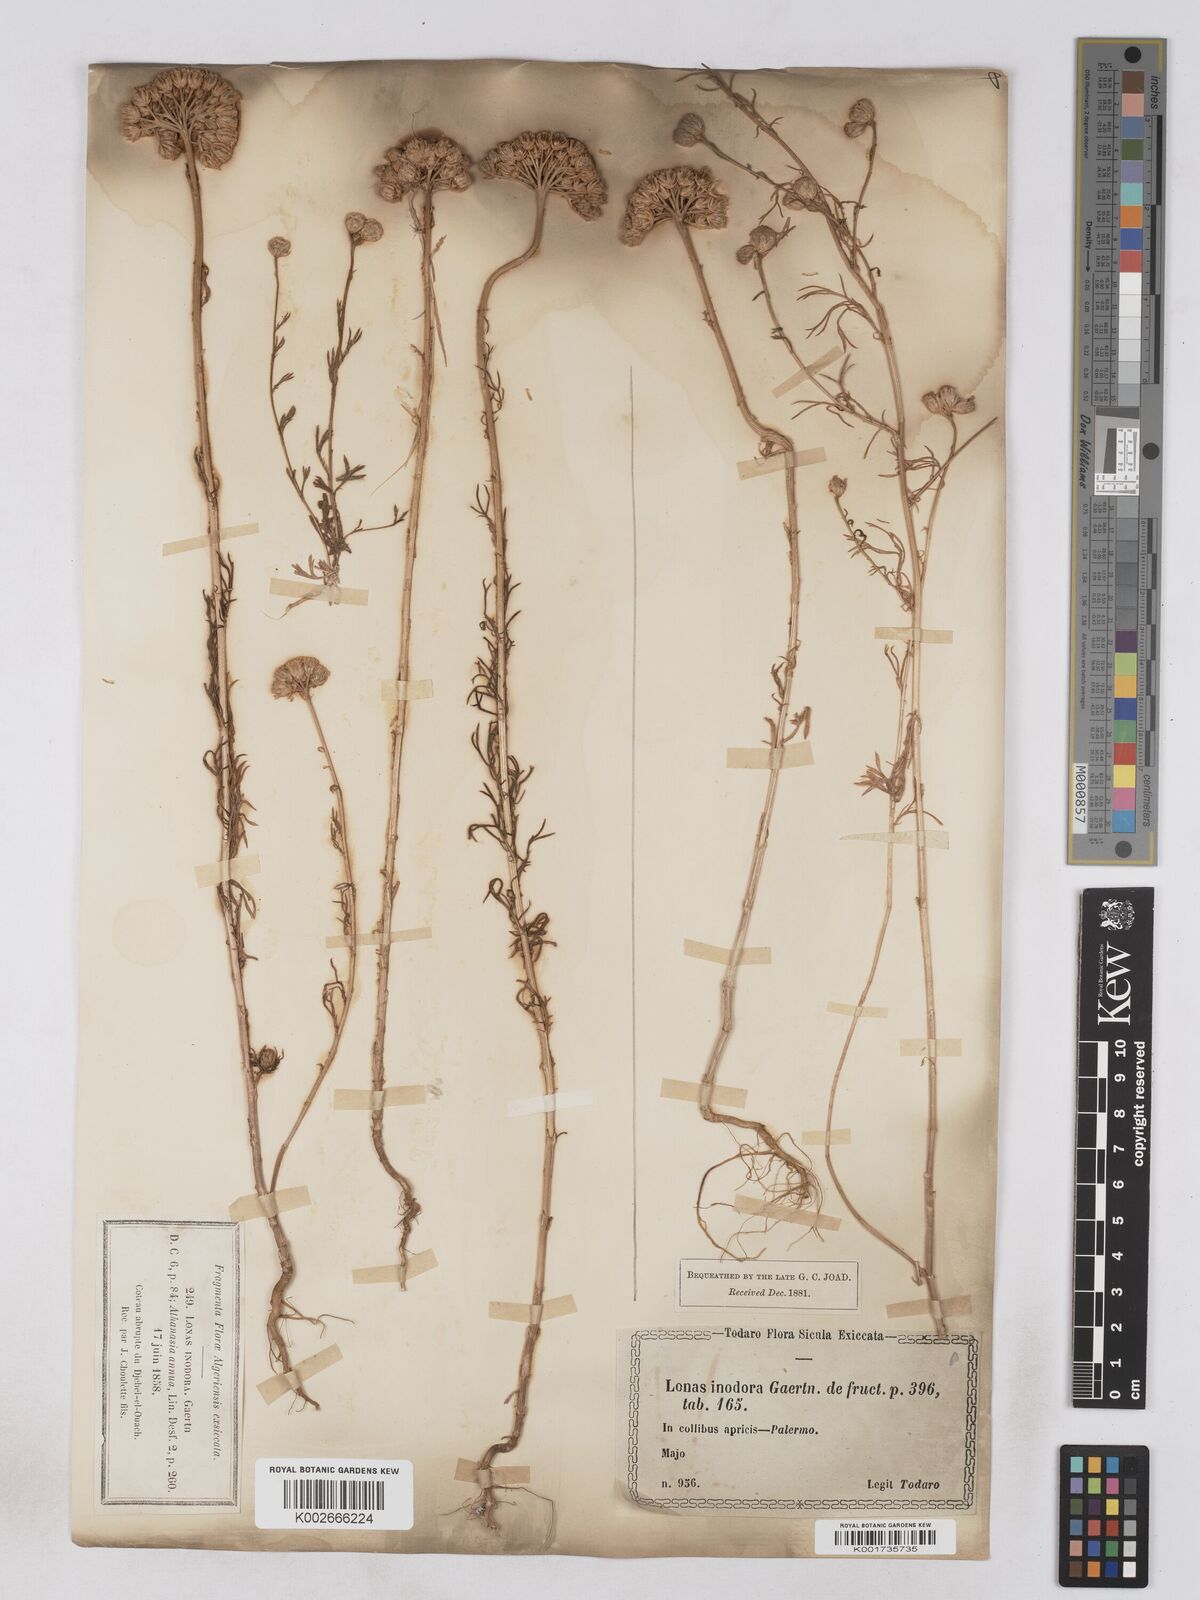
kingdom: Plantae
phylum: Tracheophyta
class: Magnoliopsida
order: Asterales
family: Asteraceae
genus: Lonas
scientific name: Lonas
